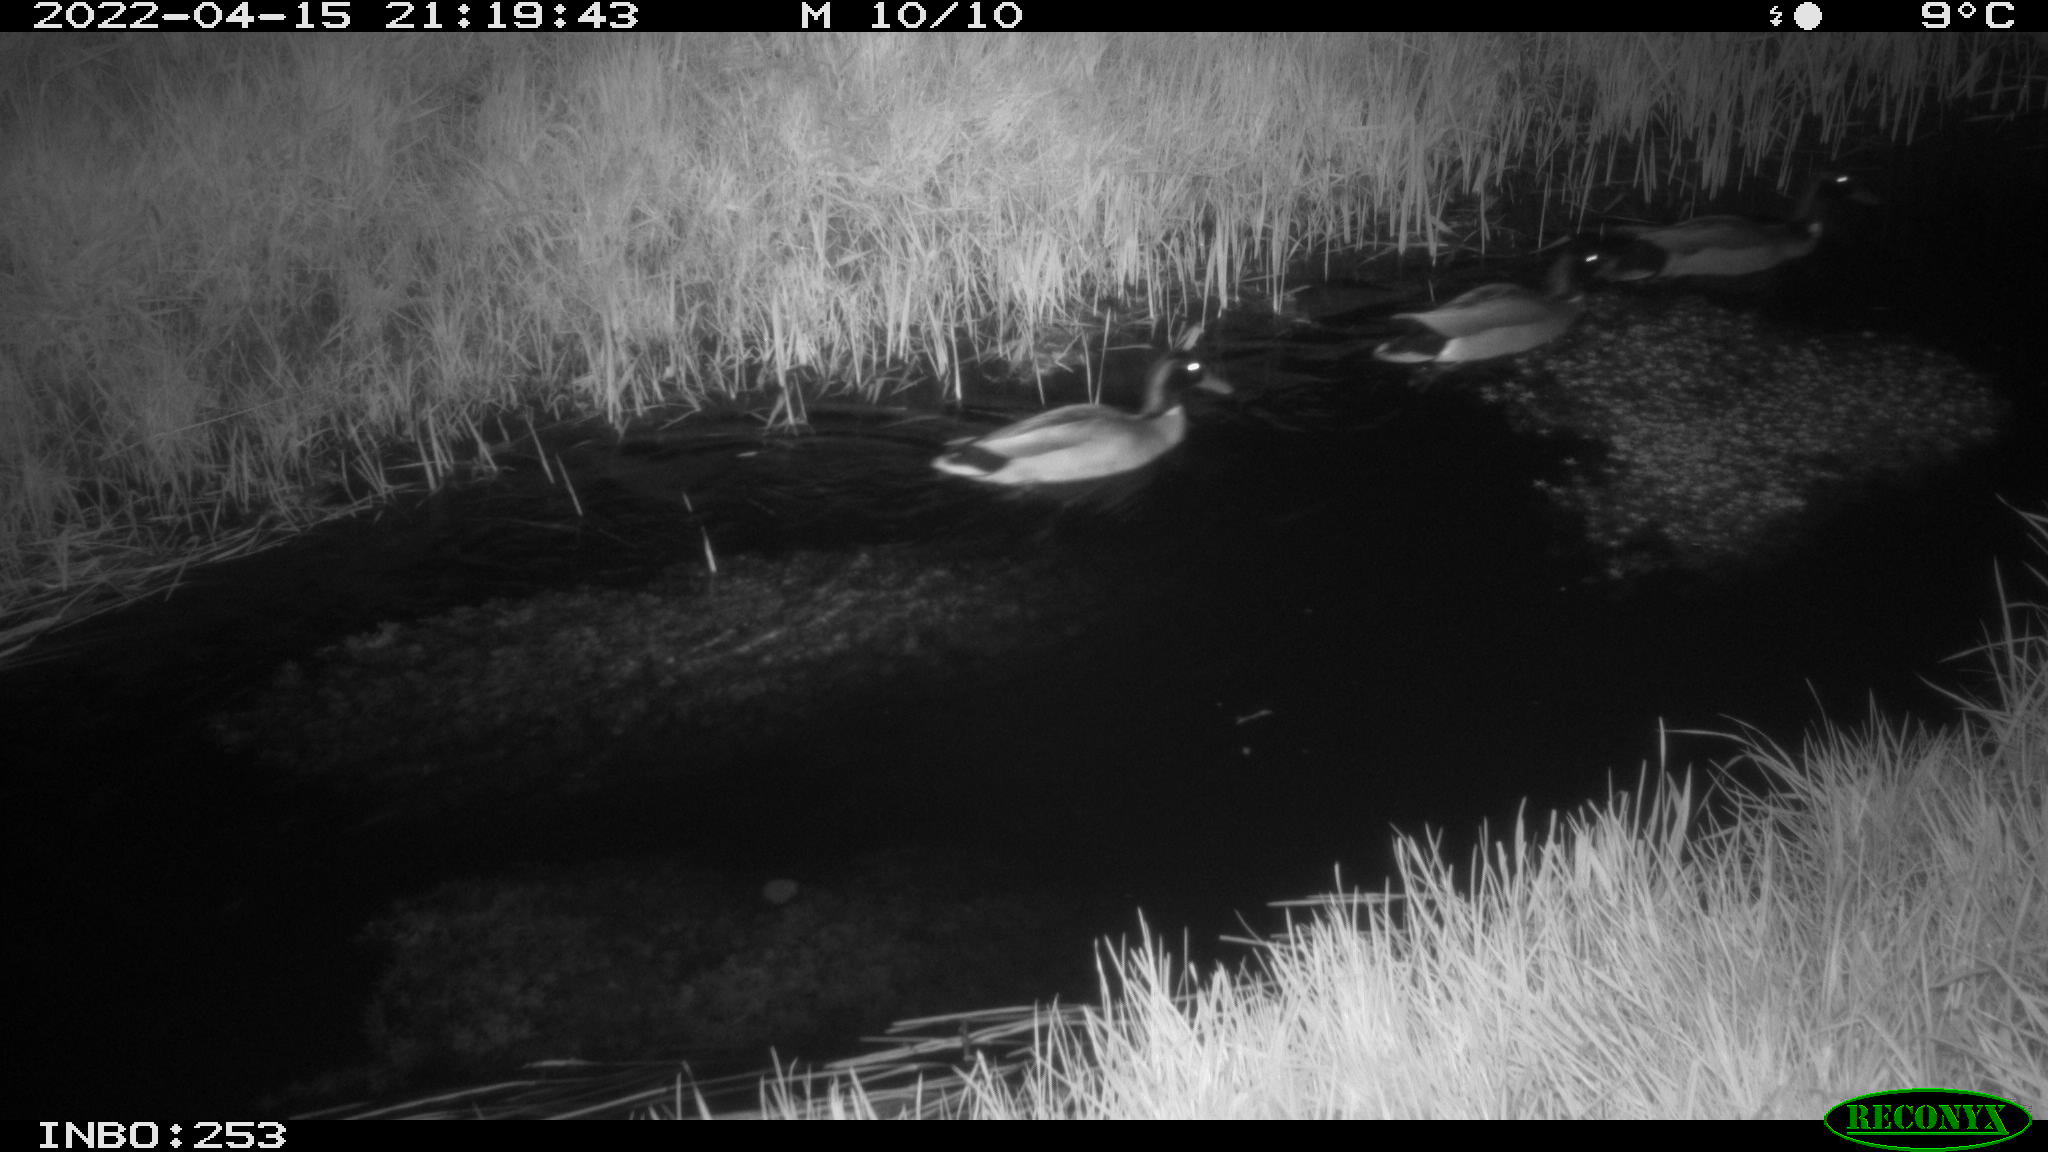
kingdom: Animalia
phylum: Chordata
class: Aves
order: Anseriformes
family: Anatidae
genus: Anas
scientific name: Anas platyrhynchos
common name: Mallard
